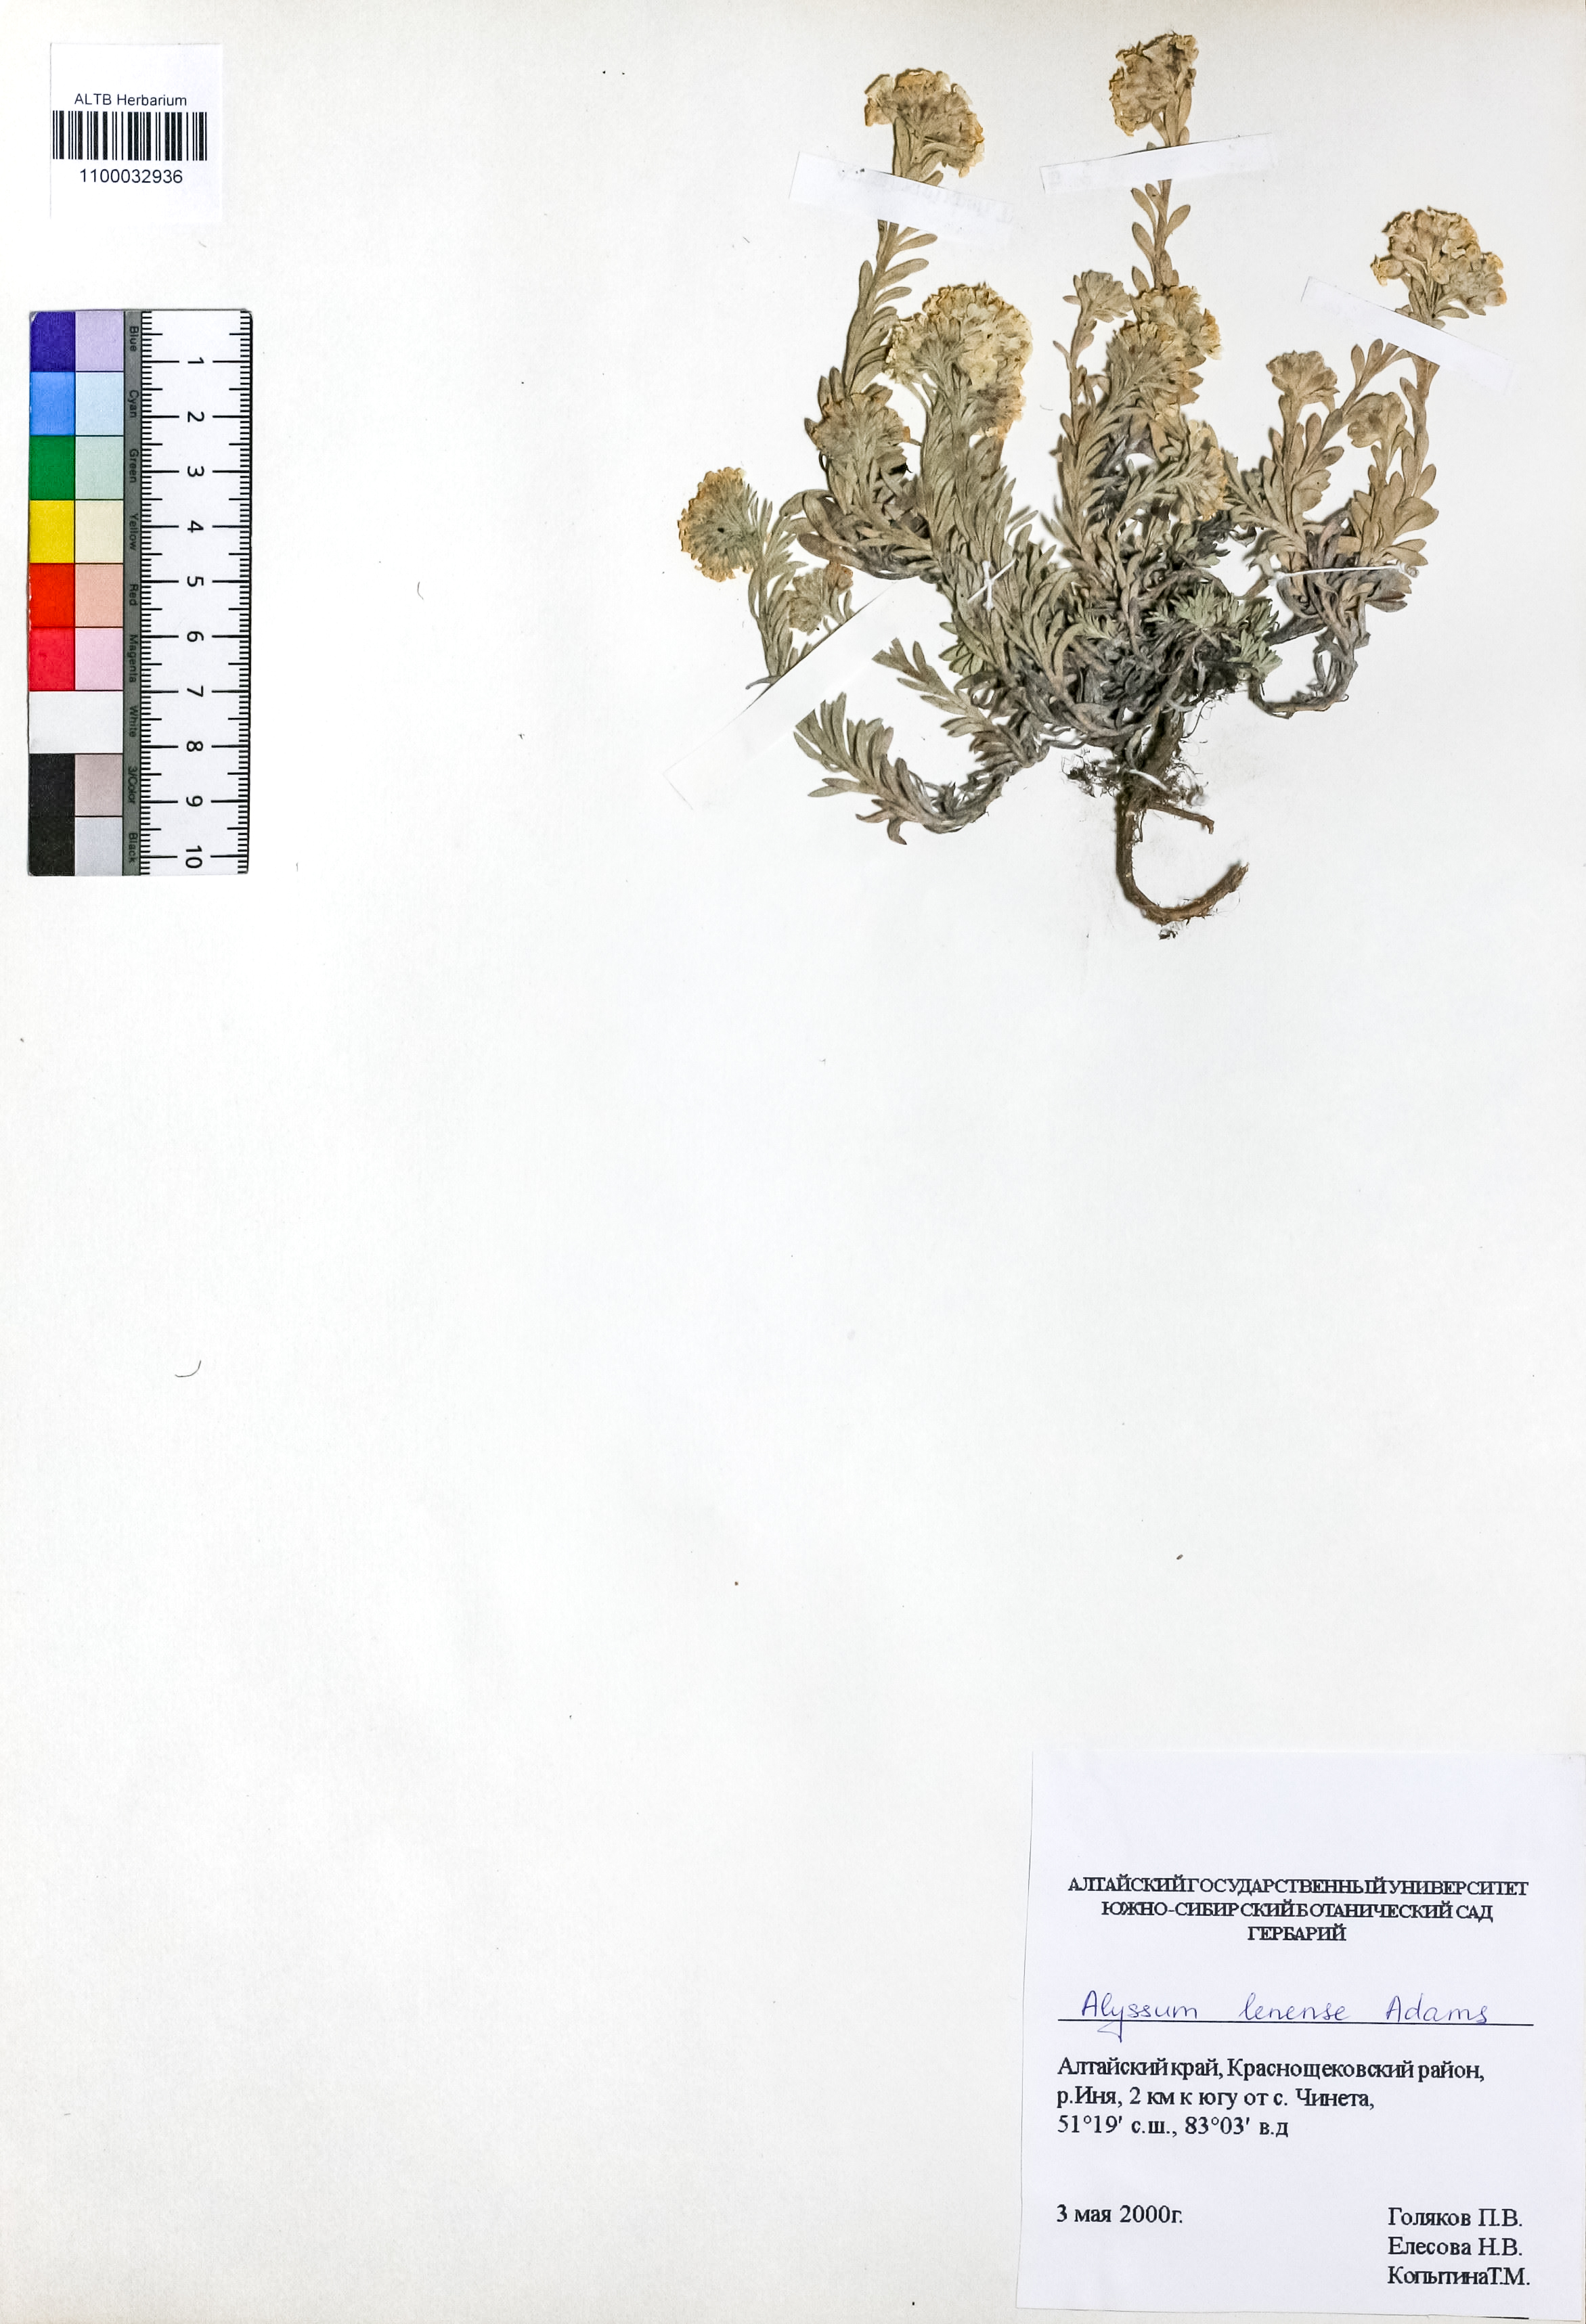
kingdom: Plantae
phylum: Tracheophyta
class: Magnoliopsida
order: Brassicales
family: Brassicaceae
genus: Alyssum
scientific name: Alyssum lenense
